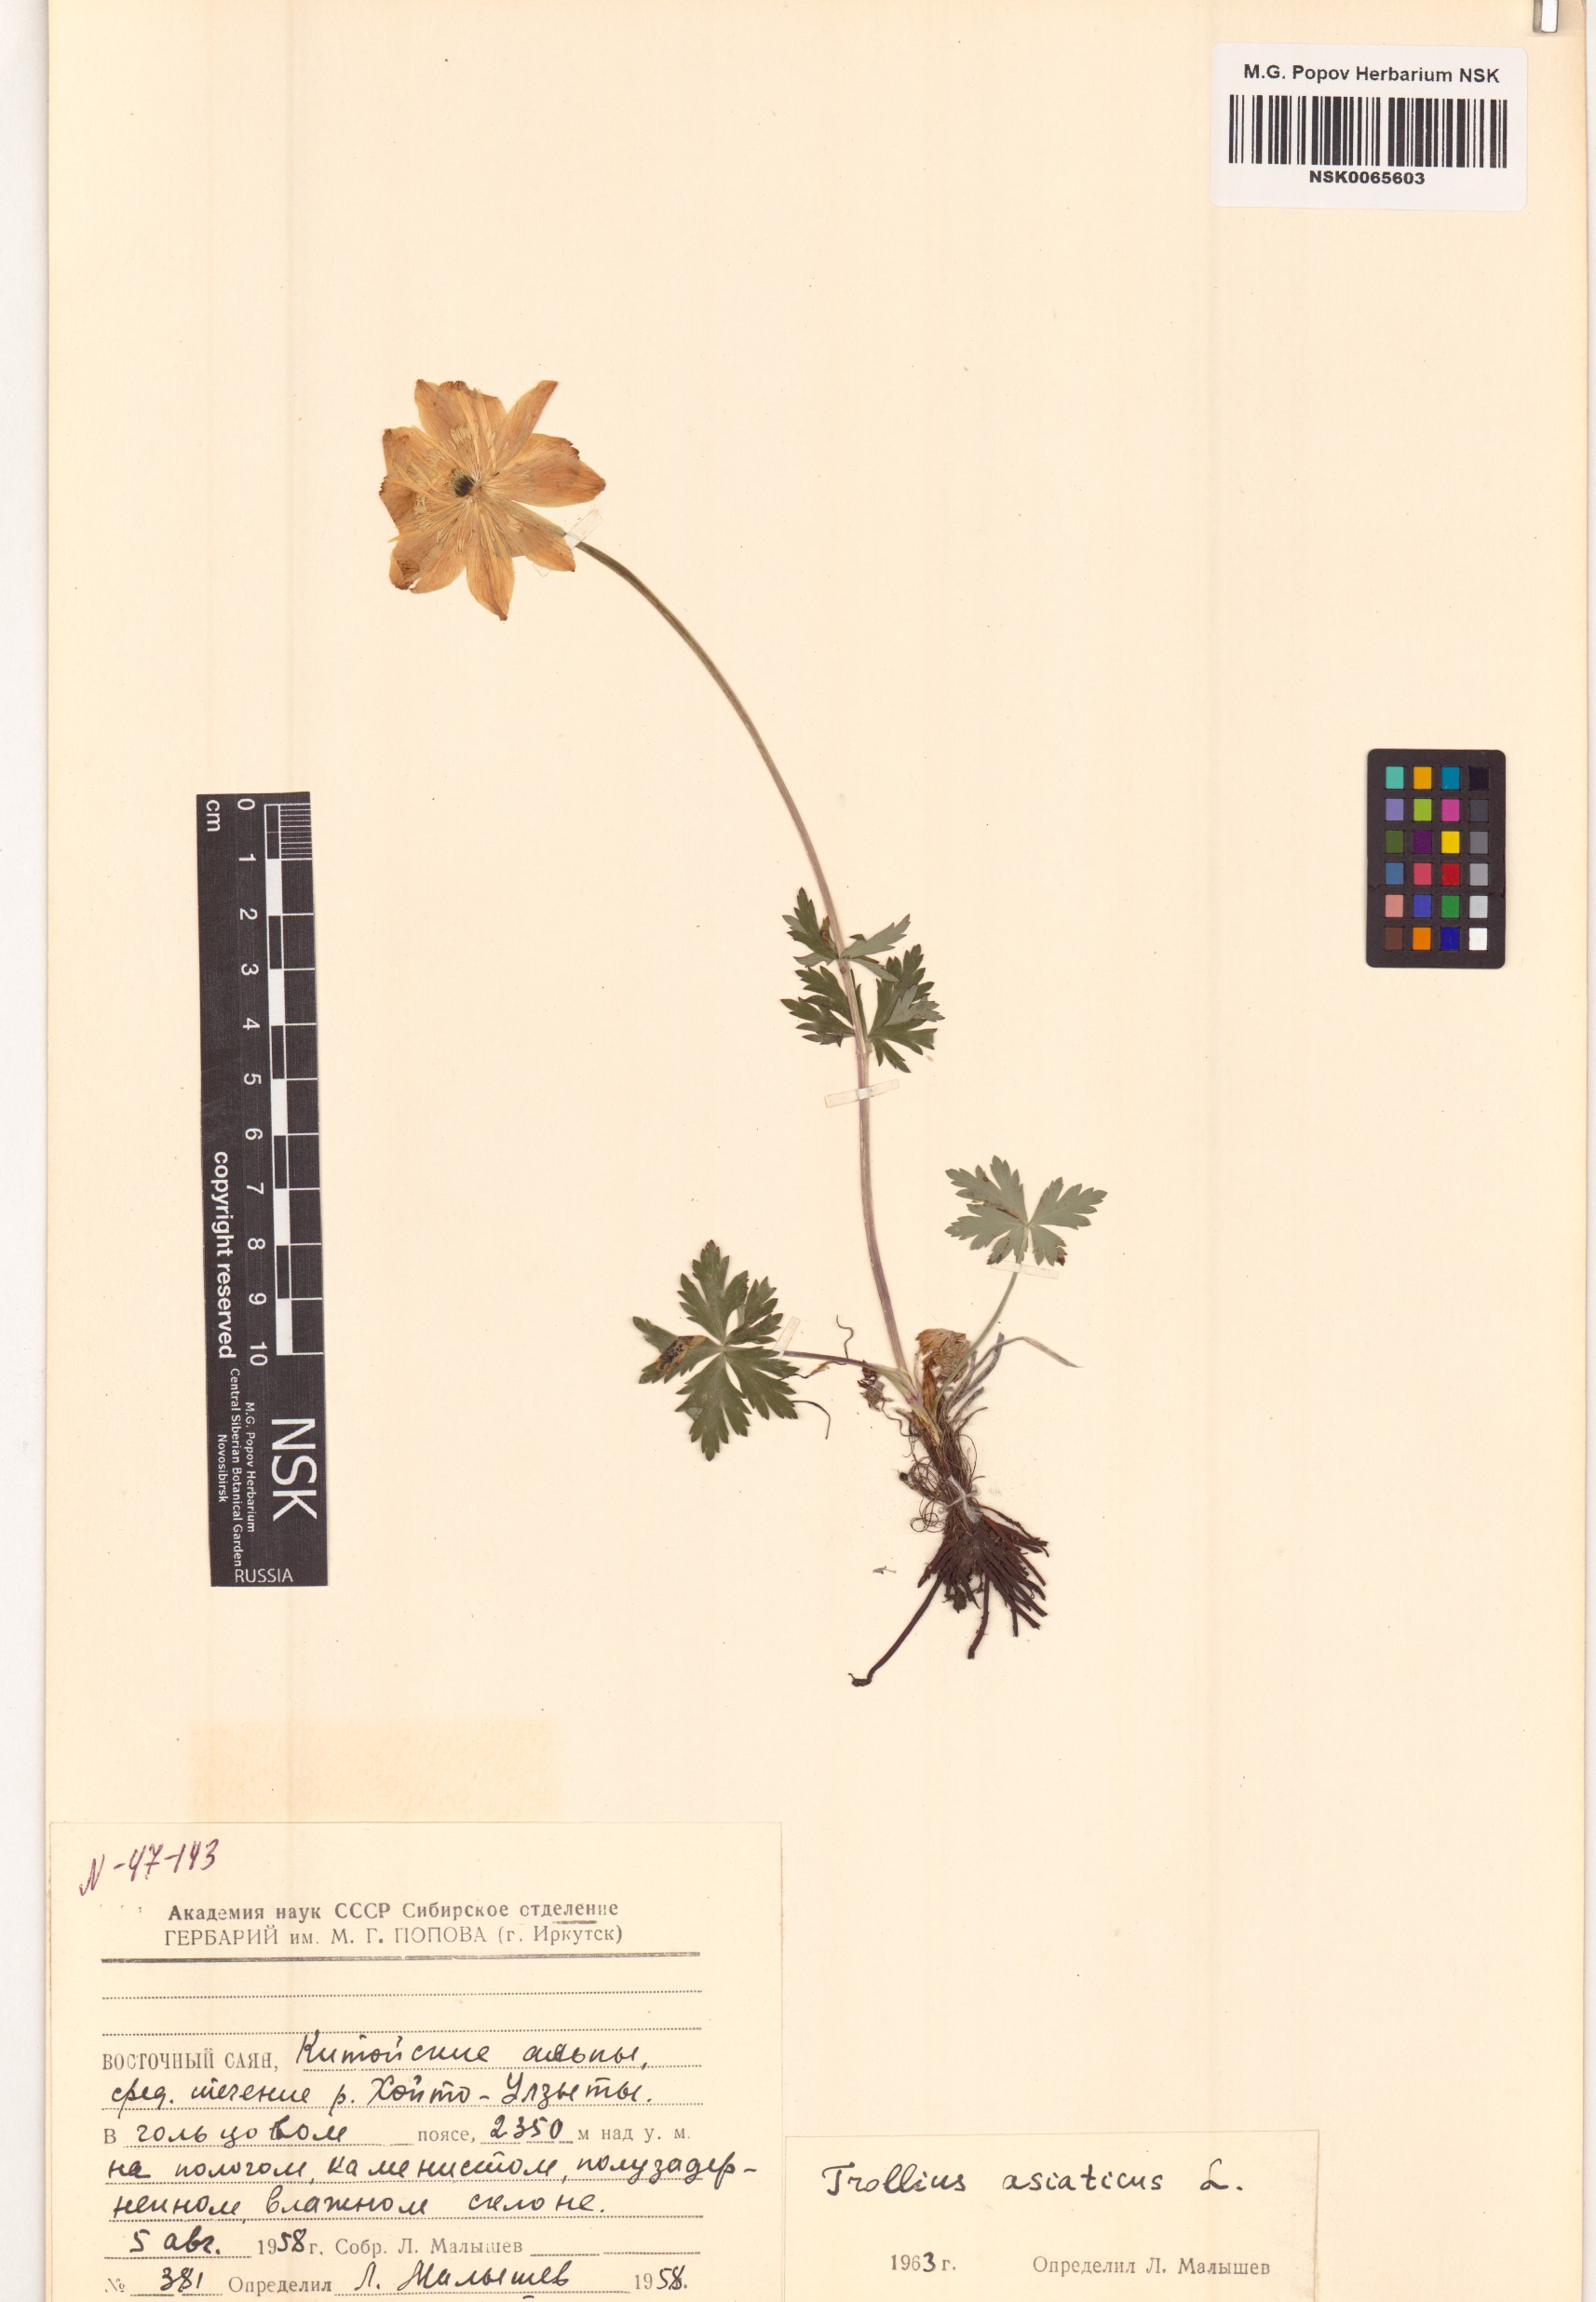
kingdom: Plantae
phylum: Tracheophyta
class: Magnoliopsida
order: Ranunculales
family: Ranunculaceae
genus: Trollius
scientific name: Trollius asiaticus
